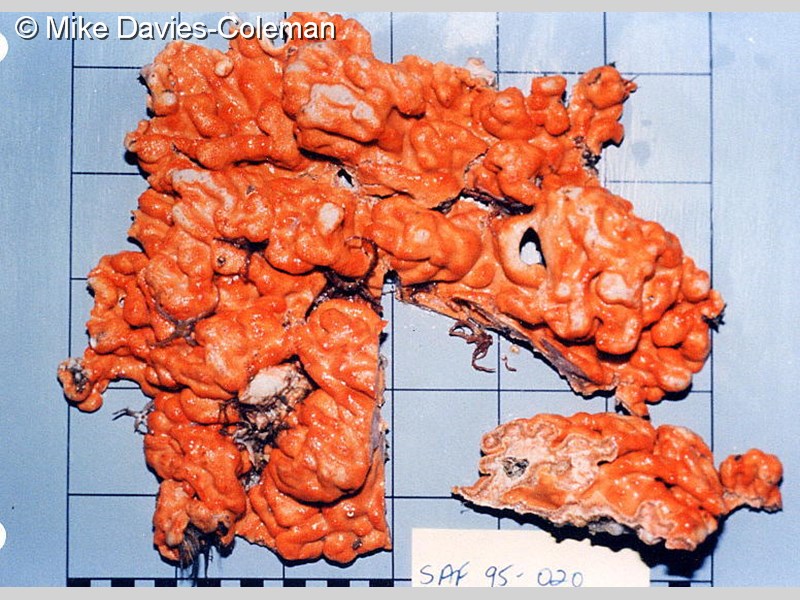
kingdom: Animalia
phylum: Chordata
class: Ascidiacea
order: Aplousobranchia
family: Didemnidae
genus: Didemnum
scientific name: Didemnum
